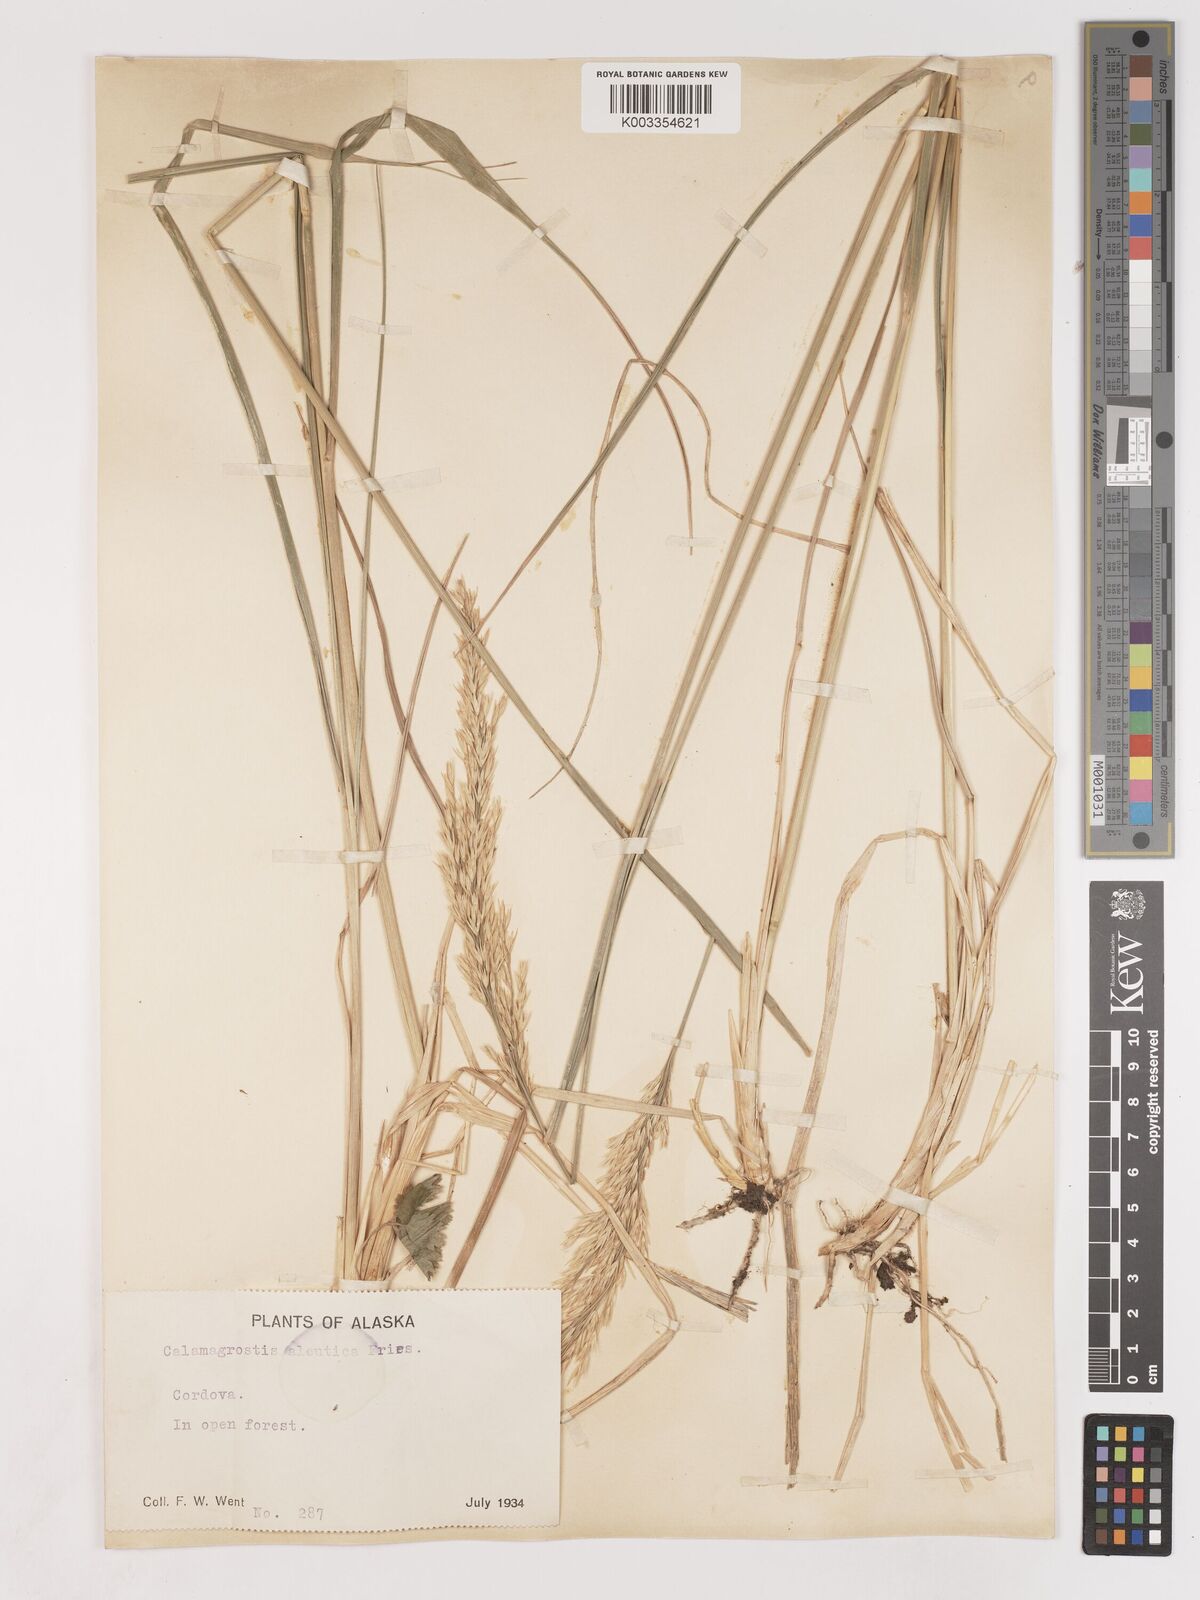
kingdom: Plantae
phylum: Tracheophyta
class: Liliopsida
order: Poales
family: Poaceae
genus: Calamagrostis
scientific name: Calamagrostis nutkaensis
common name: Pacific reed grass
